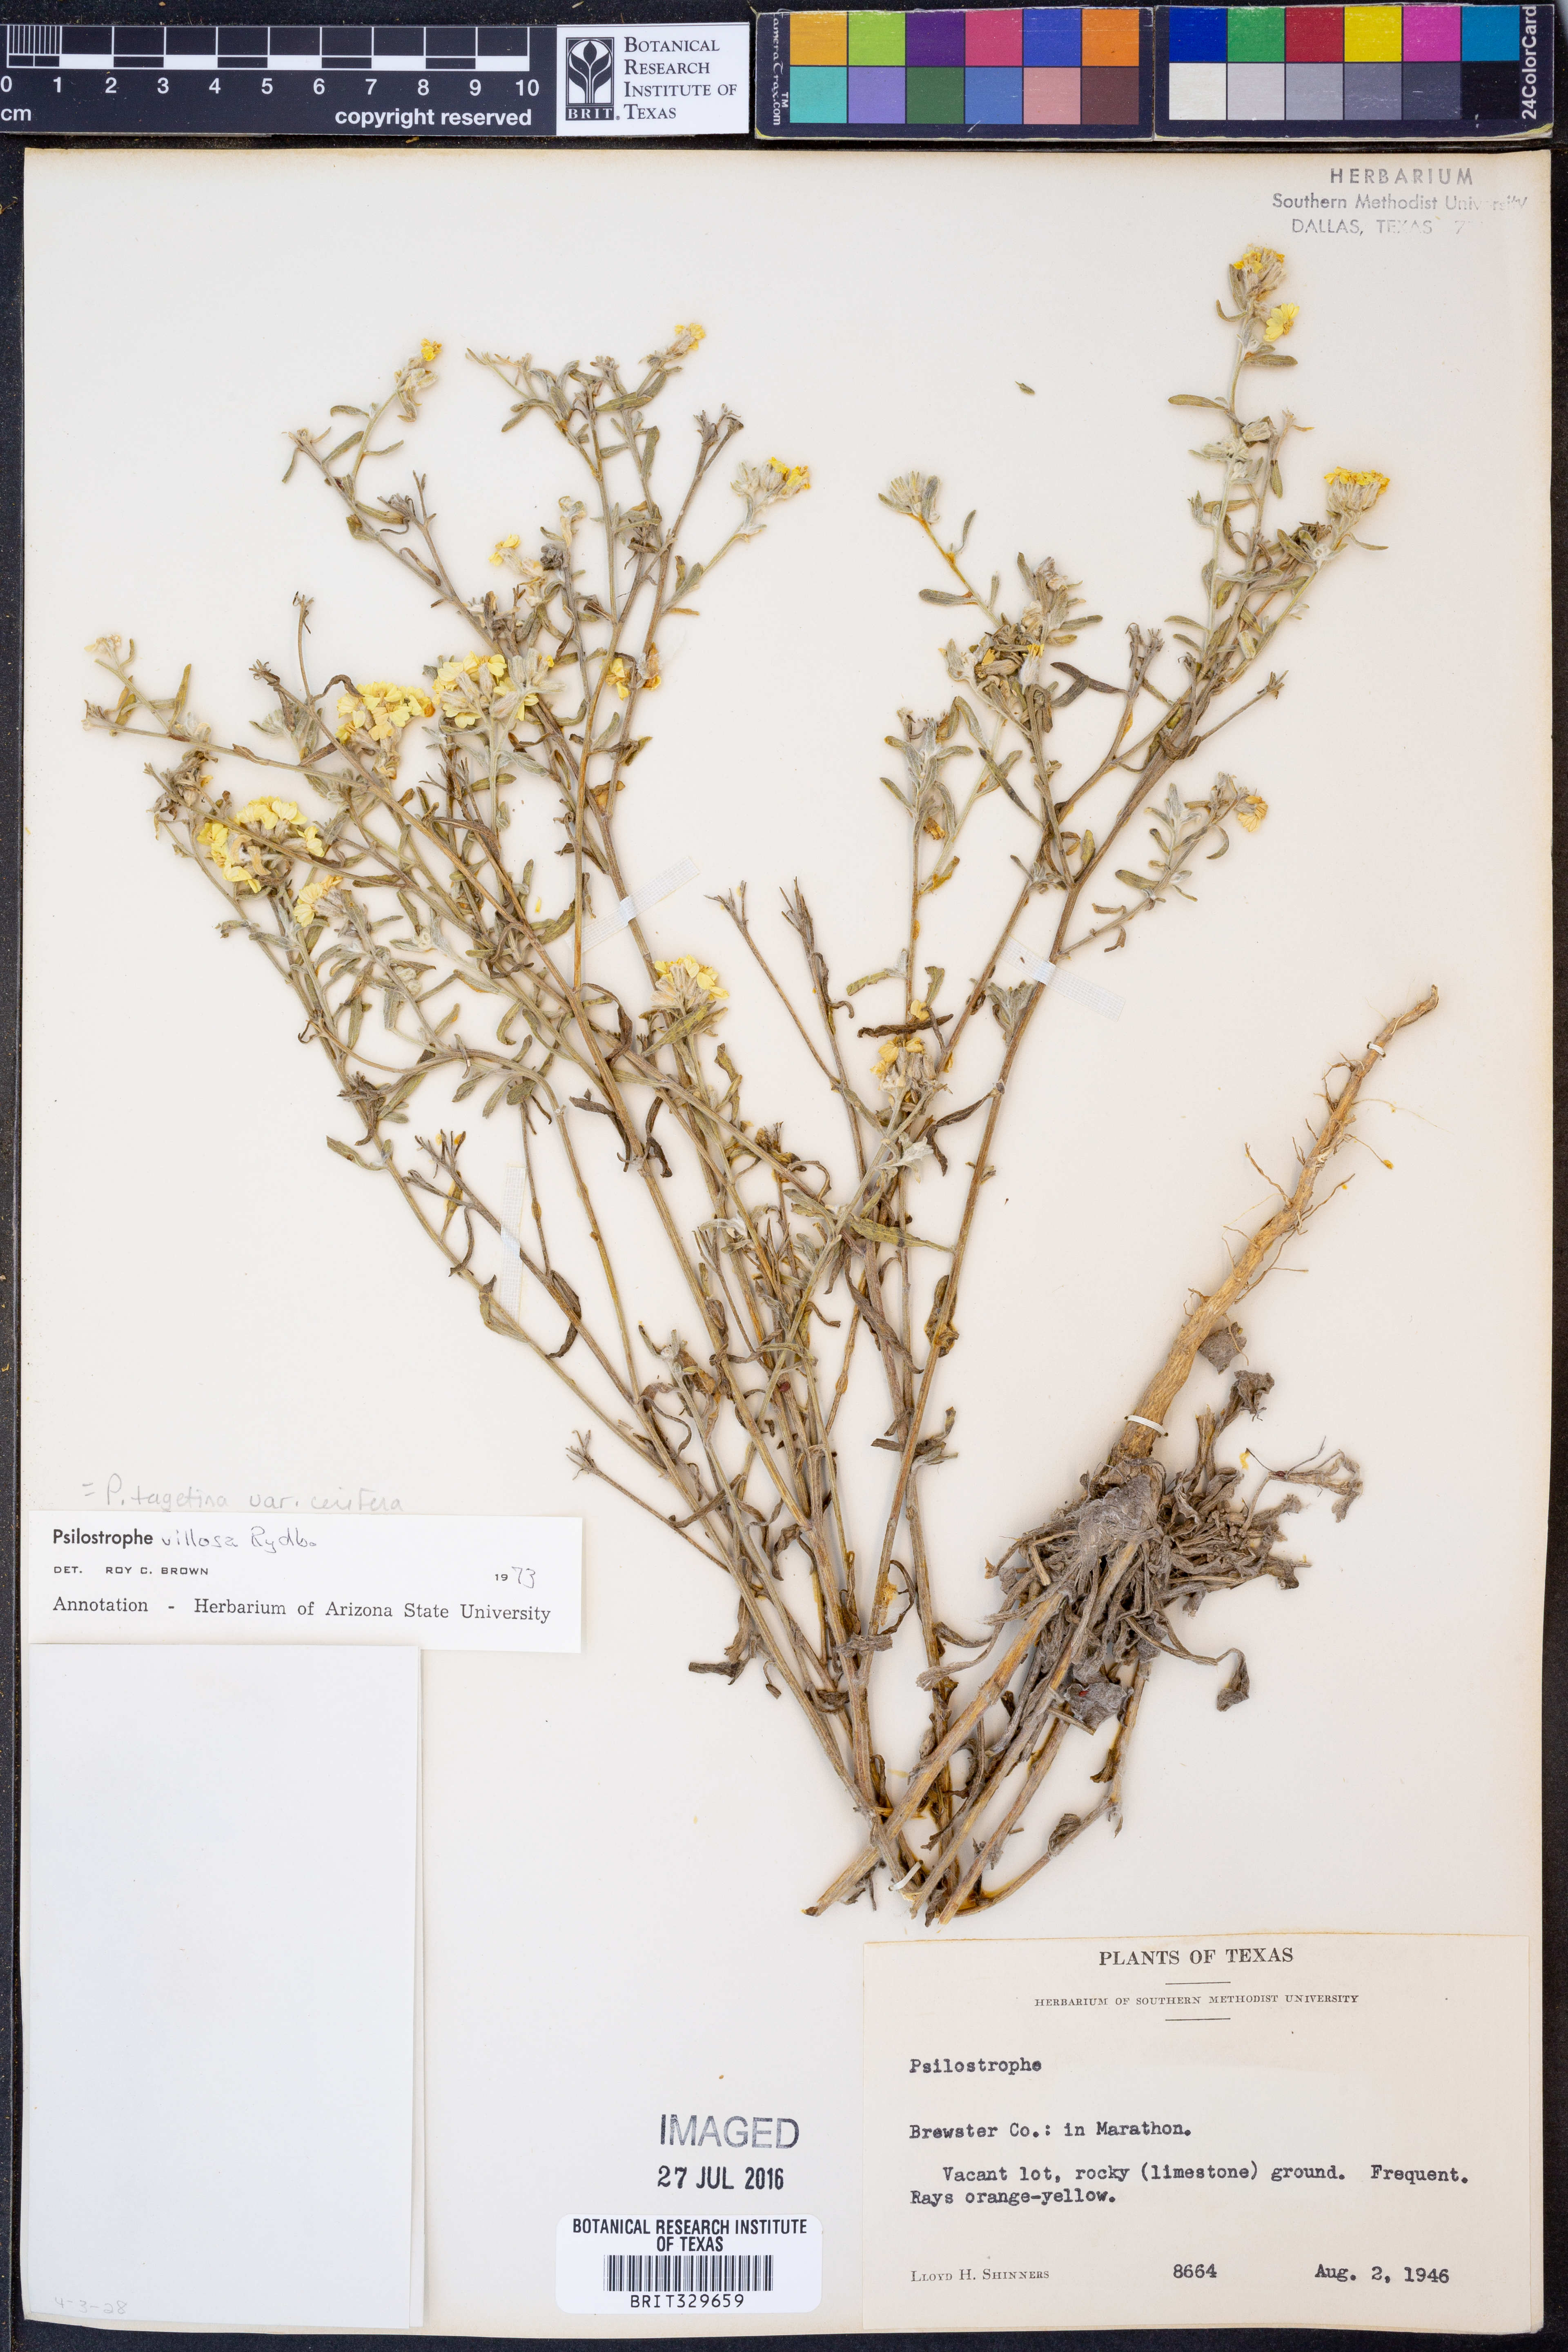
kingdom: Plantae
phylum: Tracheophyta
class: Magnoliopsida
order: Asterales
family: Asteraceae
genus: Psilostrophe
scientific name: Psilostrophe villosa
